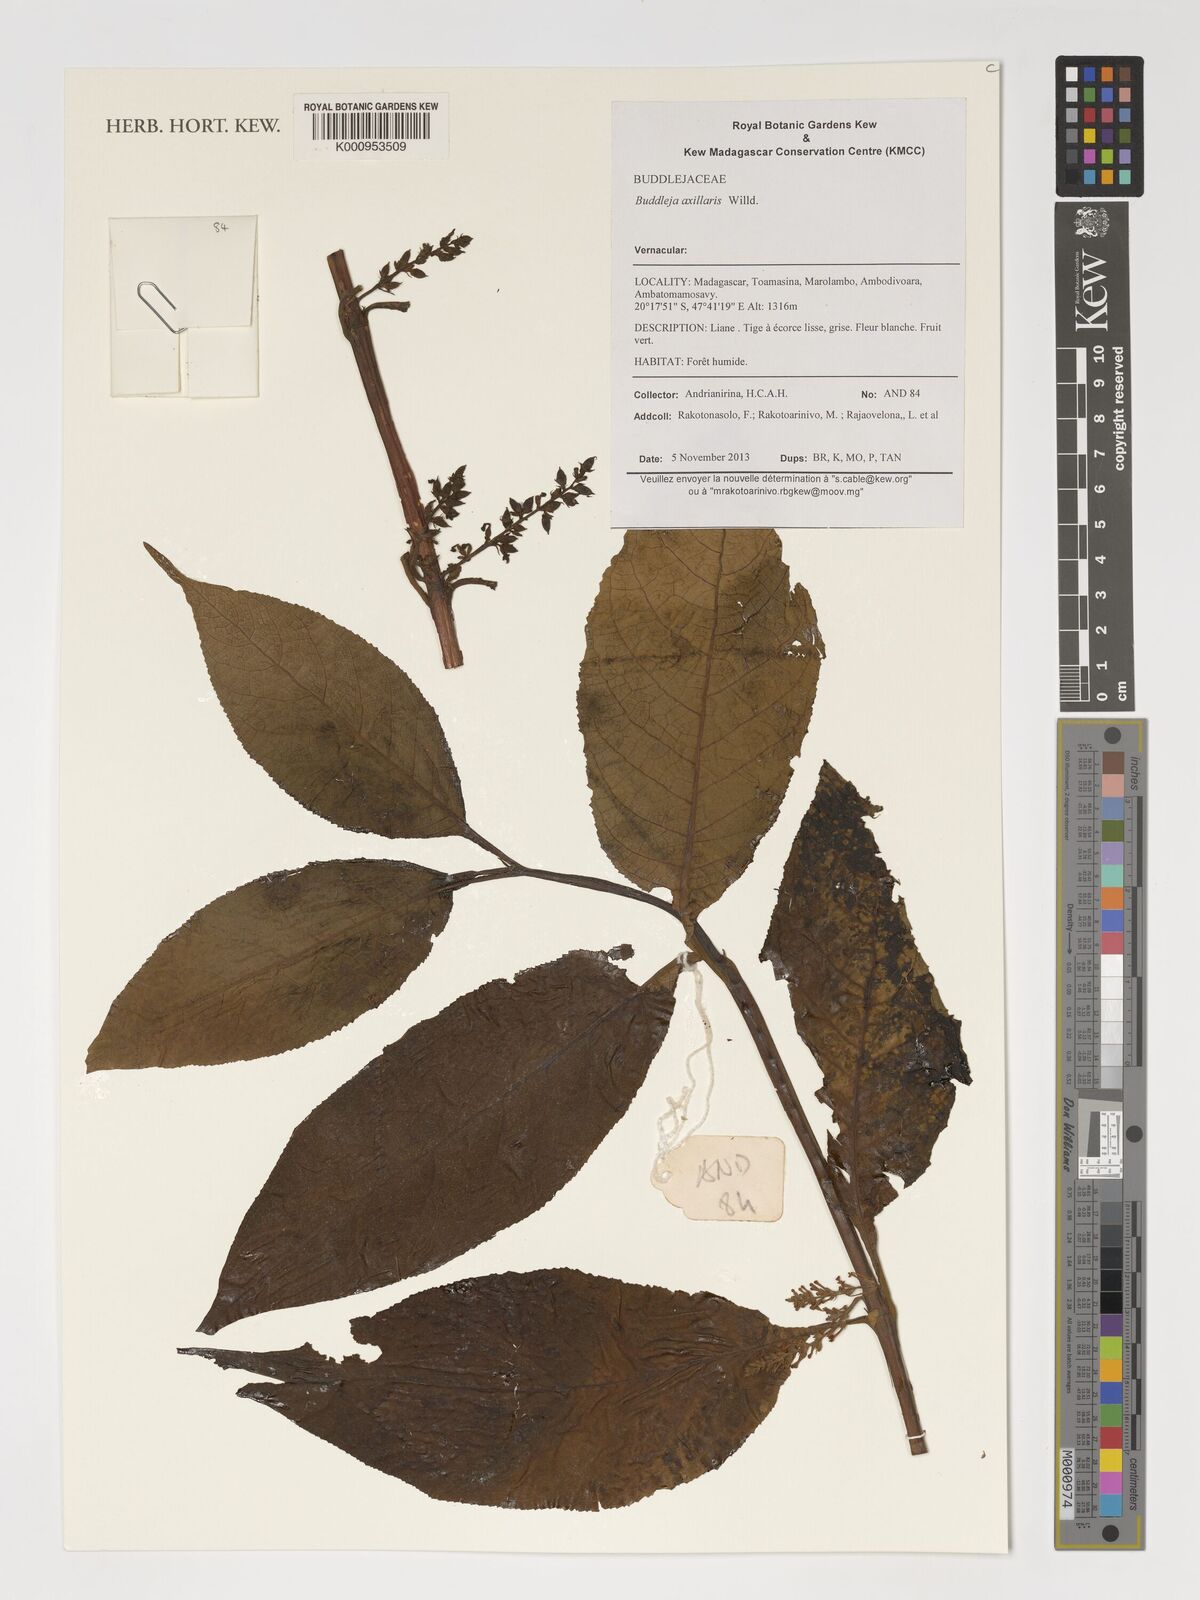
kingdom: Plantae
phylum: Tracheophyta
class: Magnoliopsida
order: Lamiales
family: Scrophulariaceae
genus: Buddleja
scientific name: Buddleja axillaris
